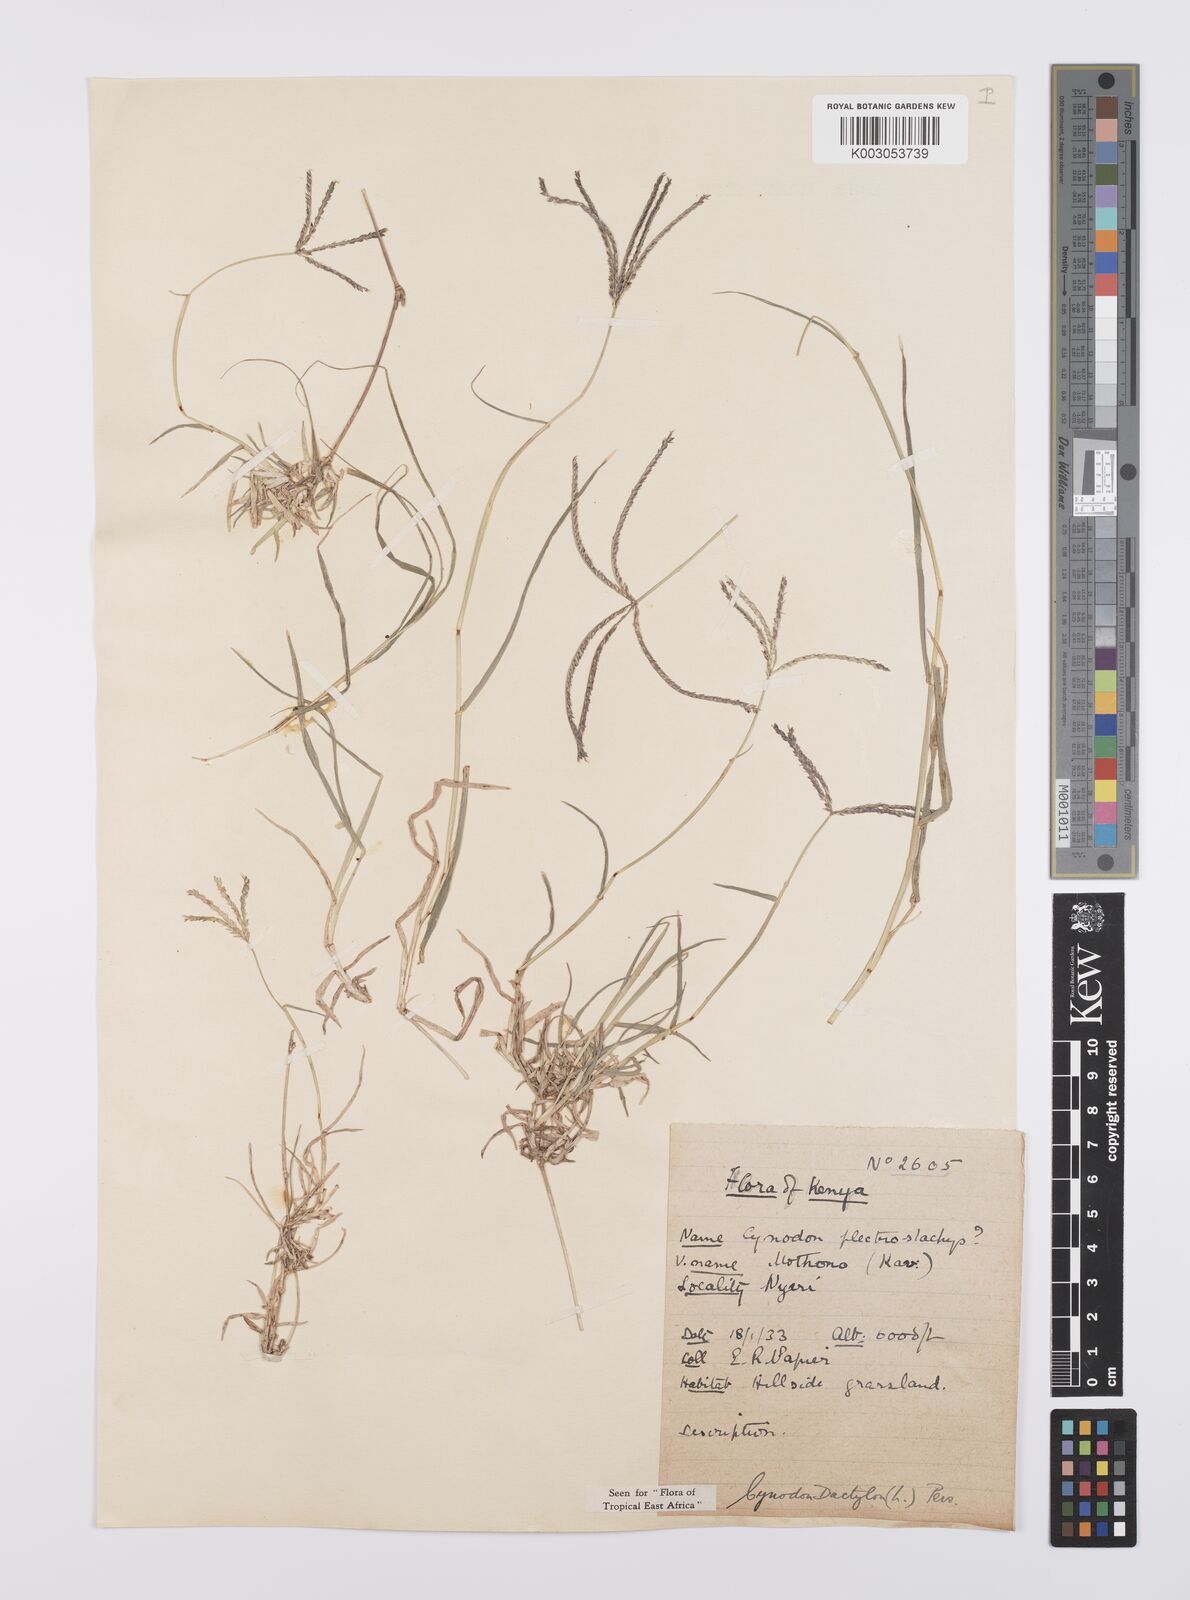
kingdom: Plantae
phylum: Tracheophyta
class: Liliopsida
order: Poales
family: Poaceae
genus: Cynodon
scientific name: Cynodon dactylon
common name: Bermuda grass
